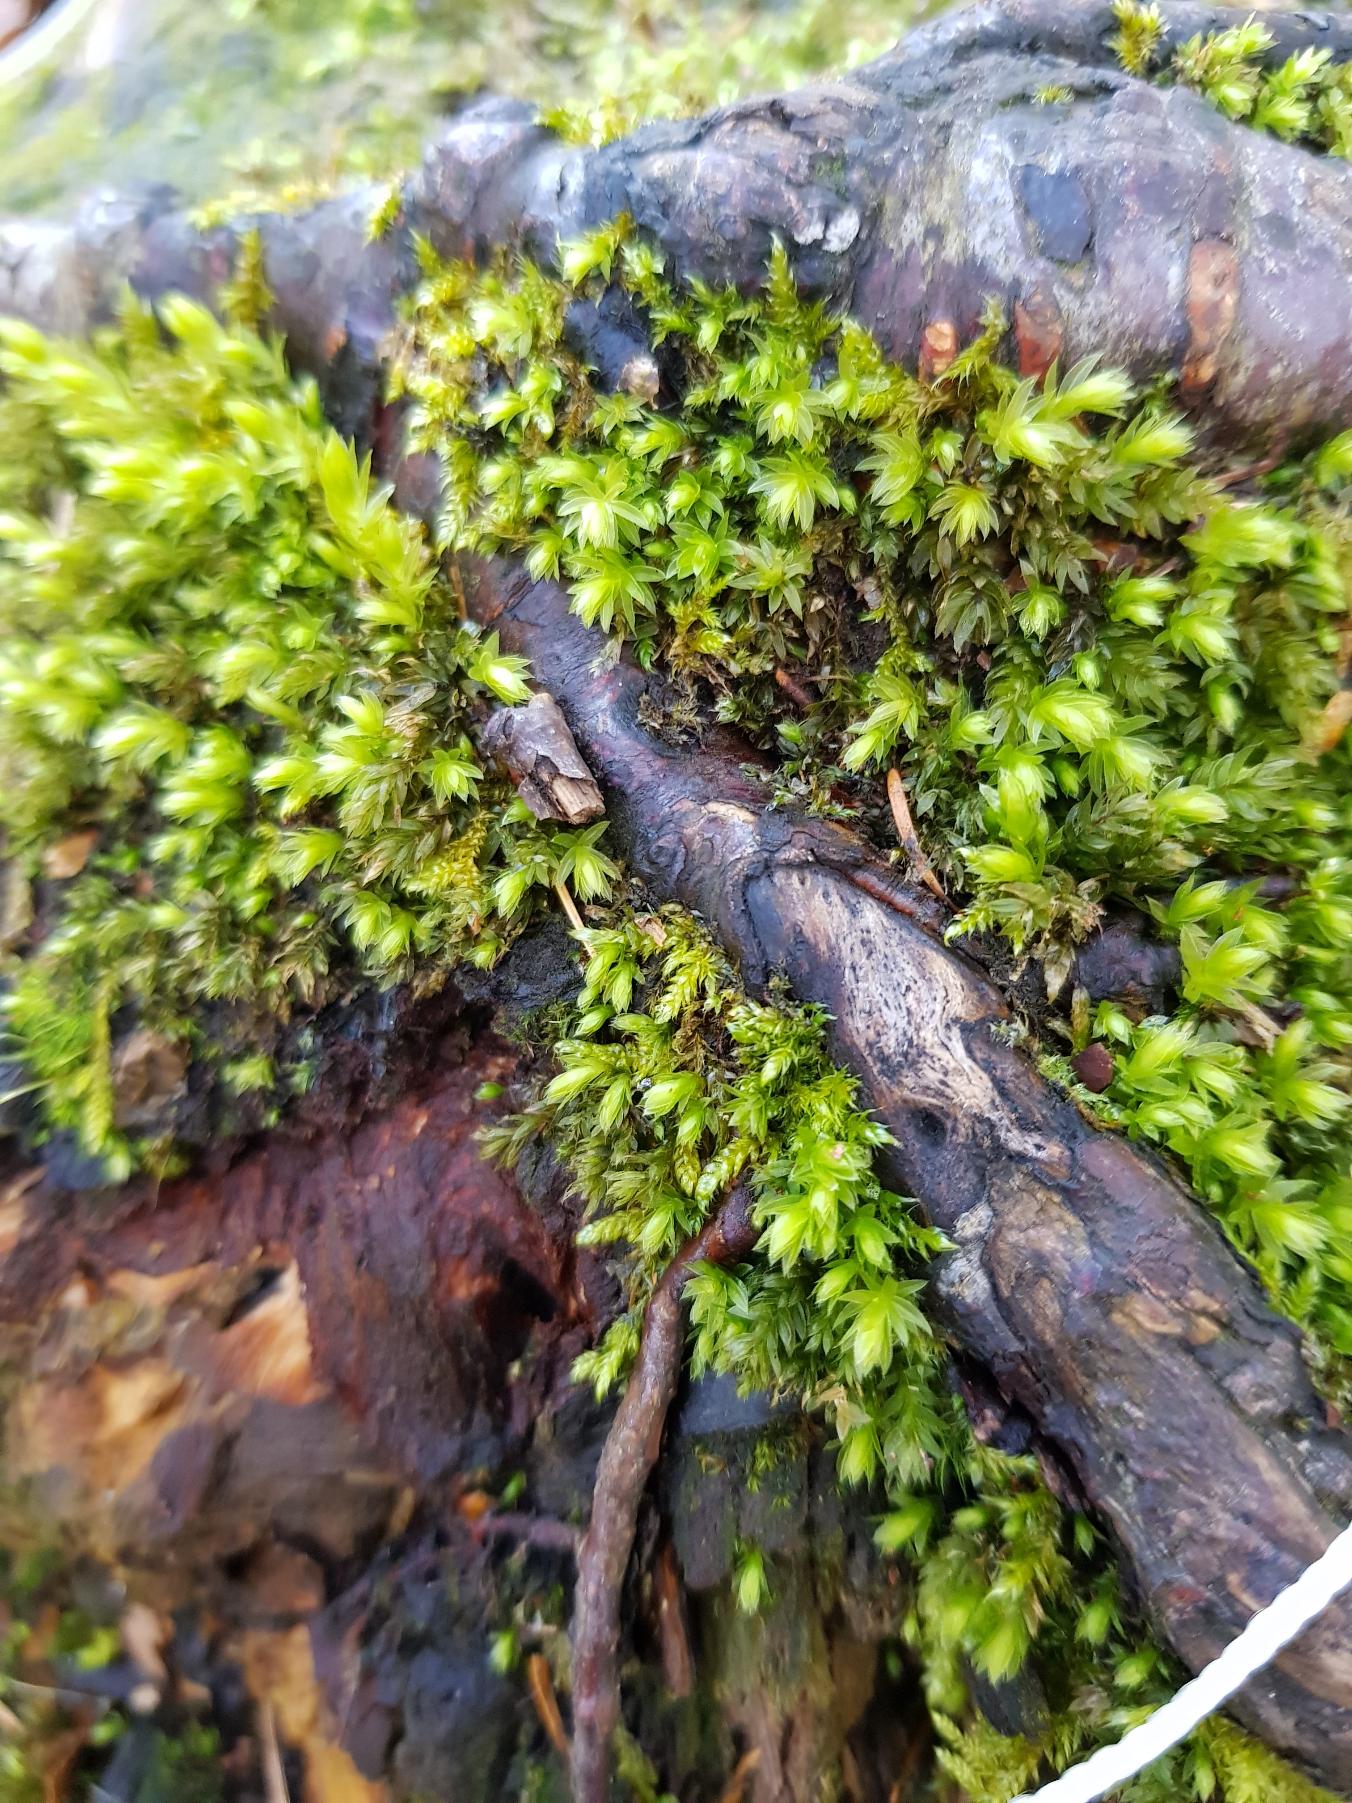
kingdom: Plantae
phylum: Bryophyta
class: Bryopsida
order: Bryales
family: Mniaceae
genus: Mnium
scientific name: Mnium hornum
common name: Brunfiltet stjernemos
